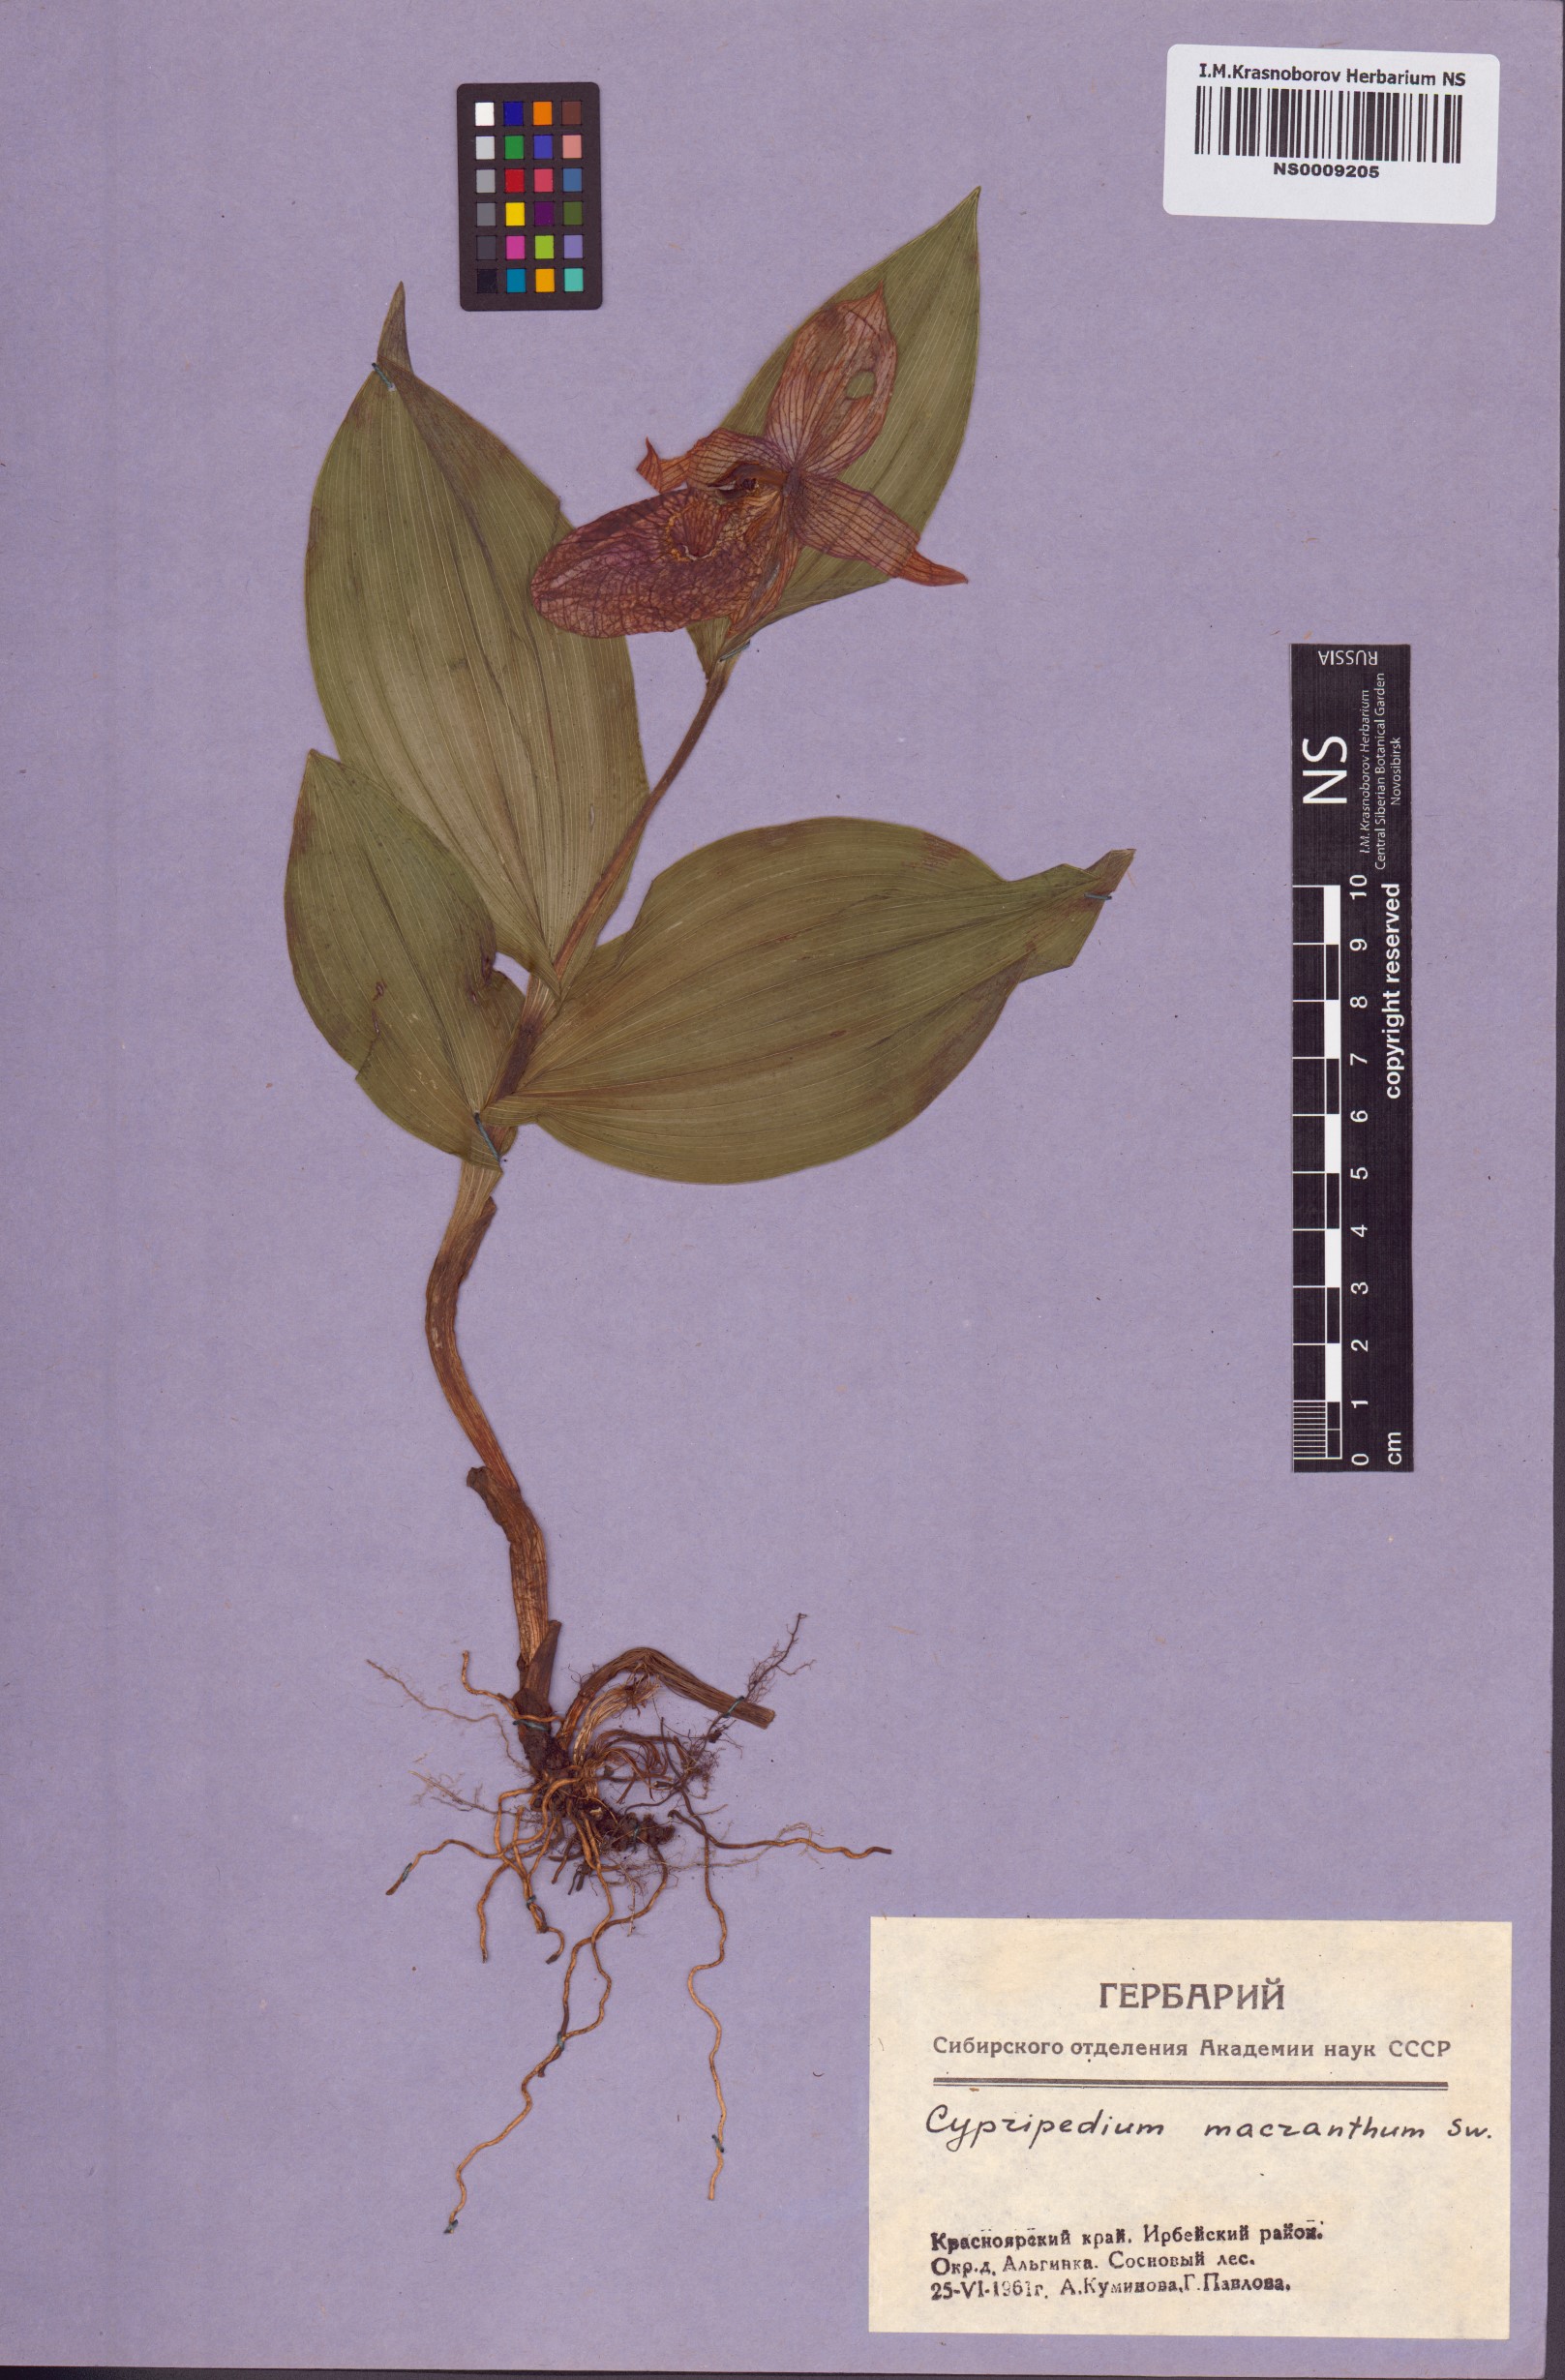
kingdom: Plantae
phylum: Tracheophyta
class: Liliopsida
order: Asparagales
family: Orchidaceae
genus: Cypripedium
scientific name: Cypripedium macranthos
